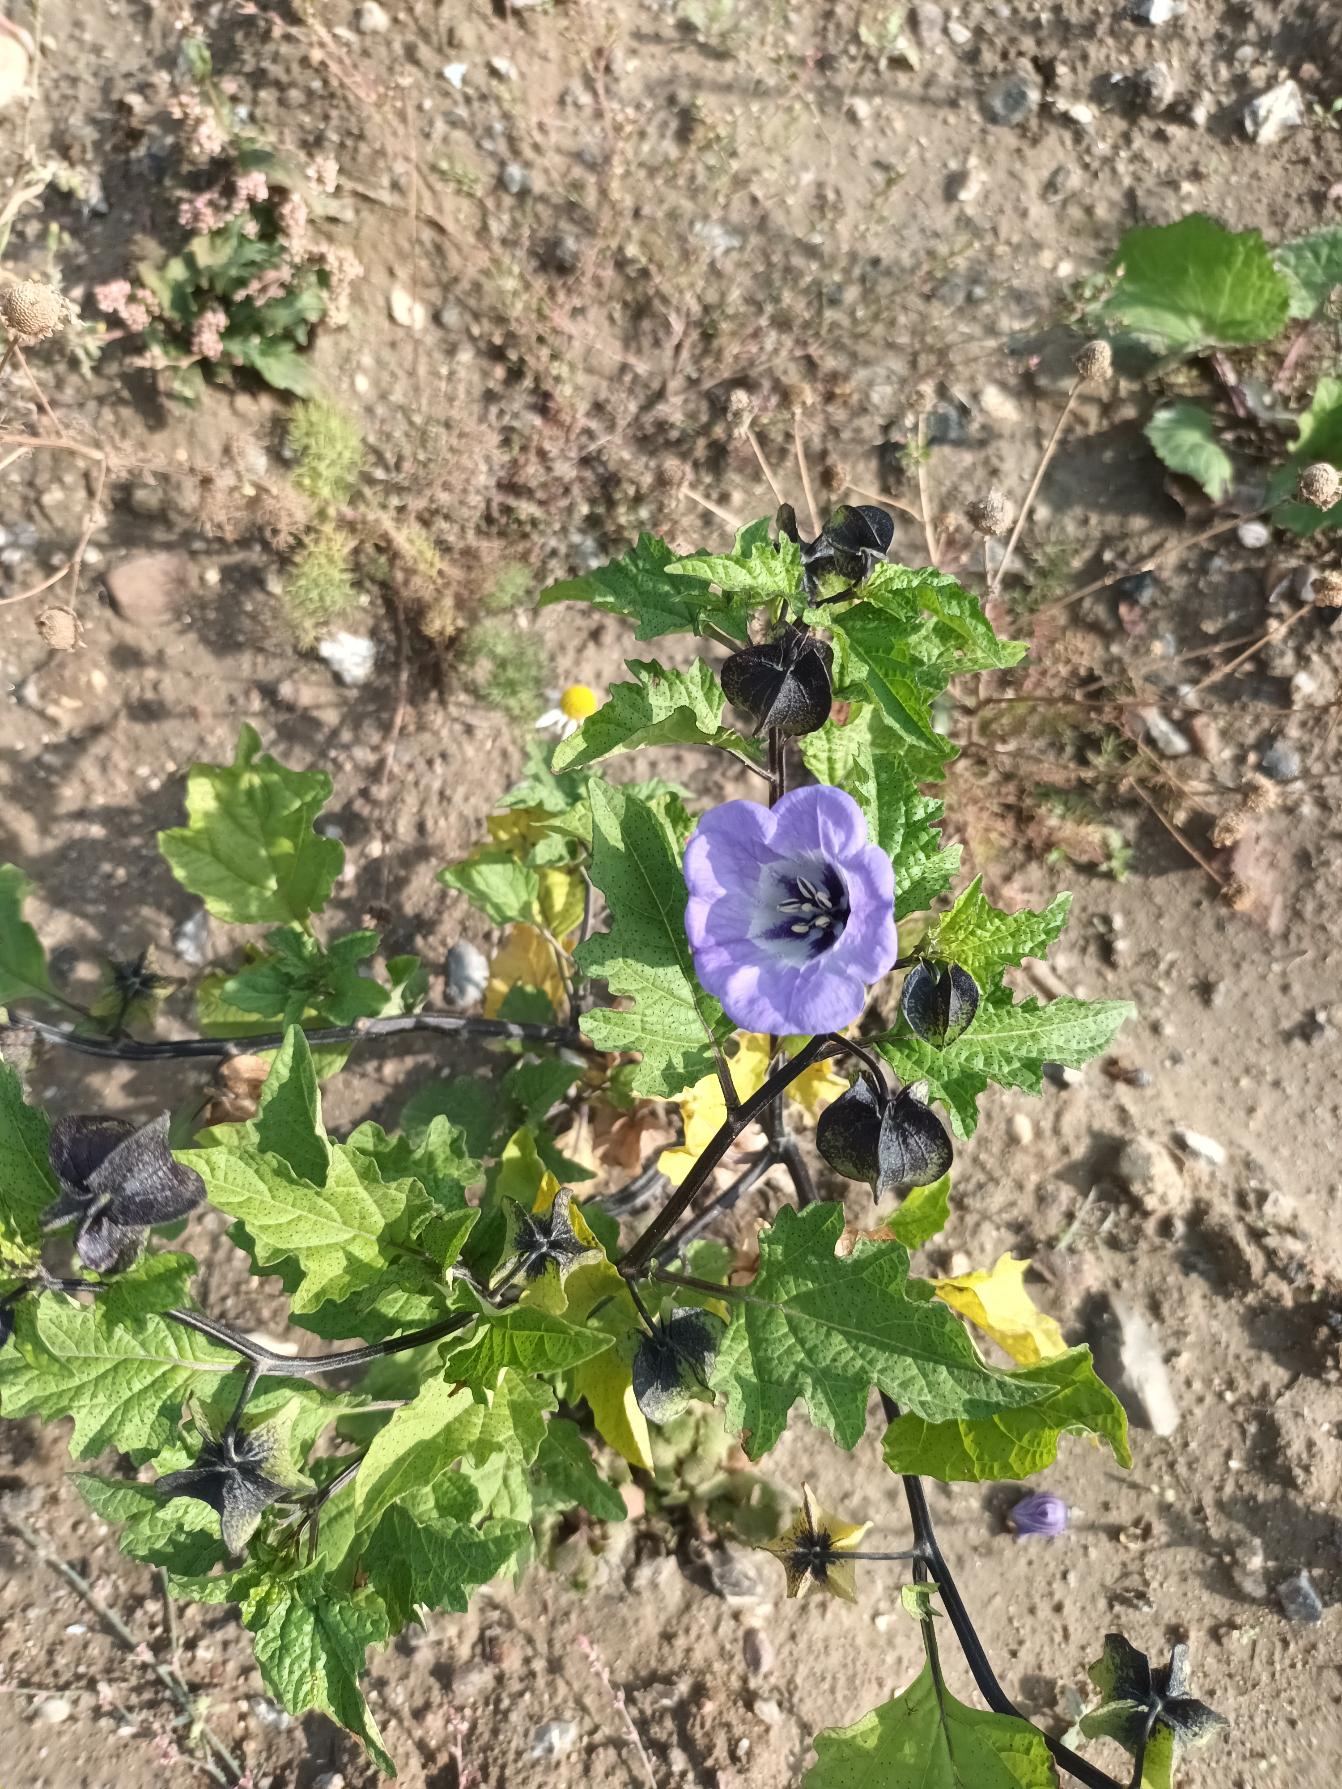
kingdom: Plantae
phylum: Tracheophyta
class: Magnoliopsida
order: Solanales
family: Solanaceae
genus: Nicandra
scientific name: Nicandra physalodes
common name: Kantbæger
